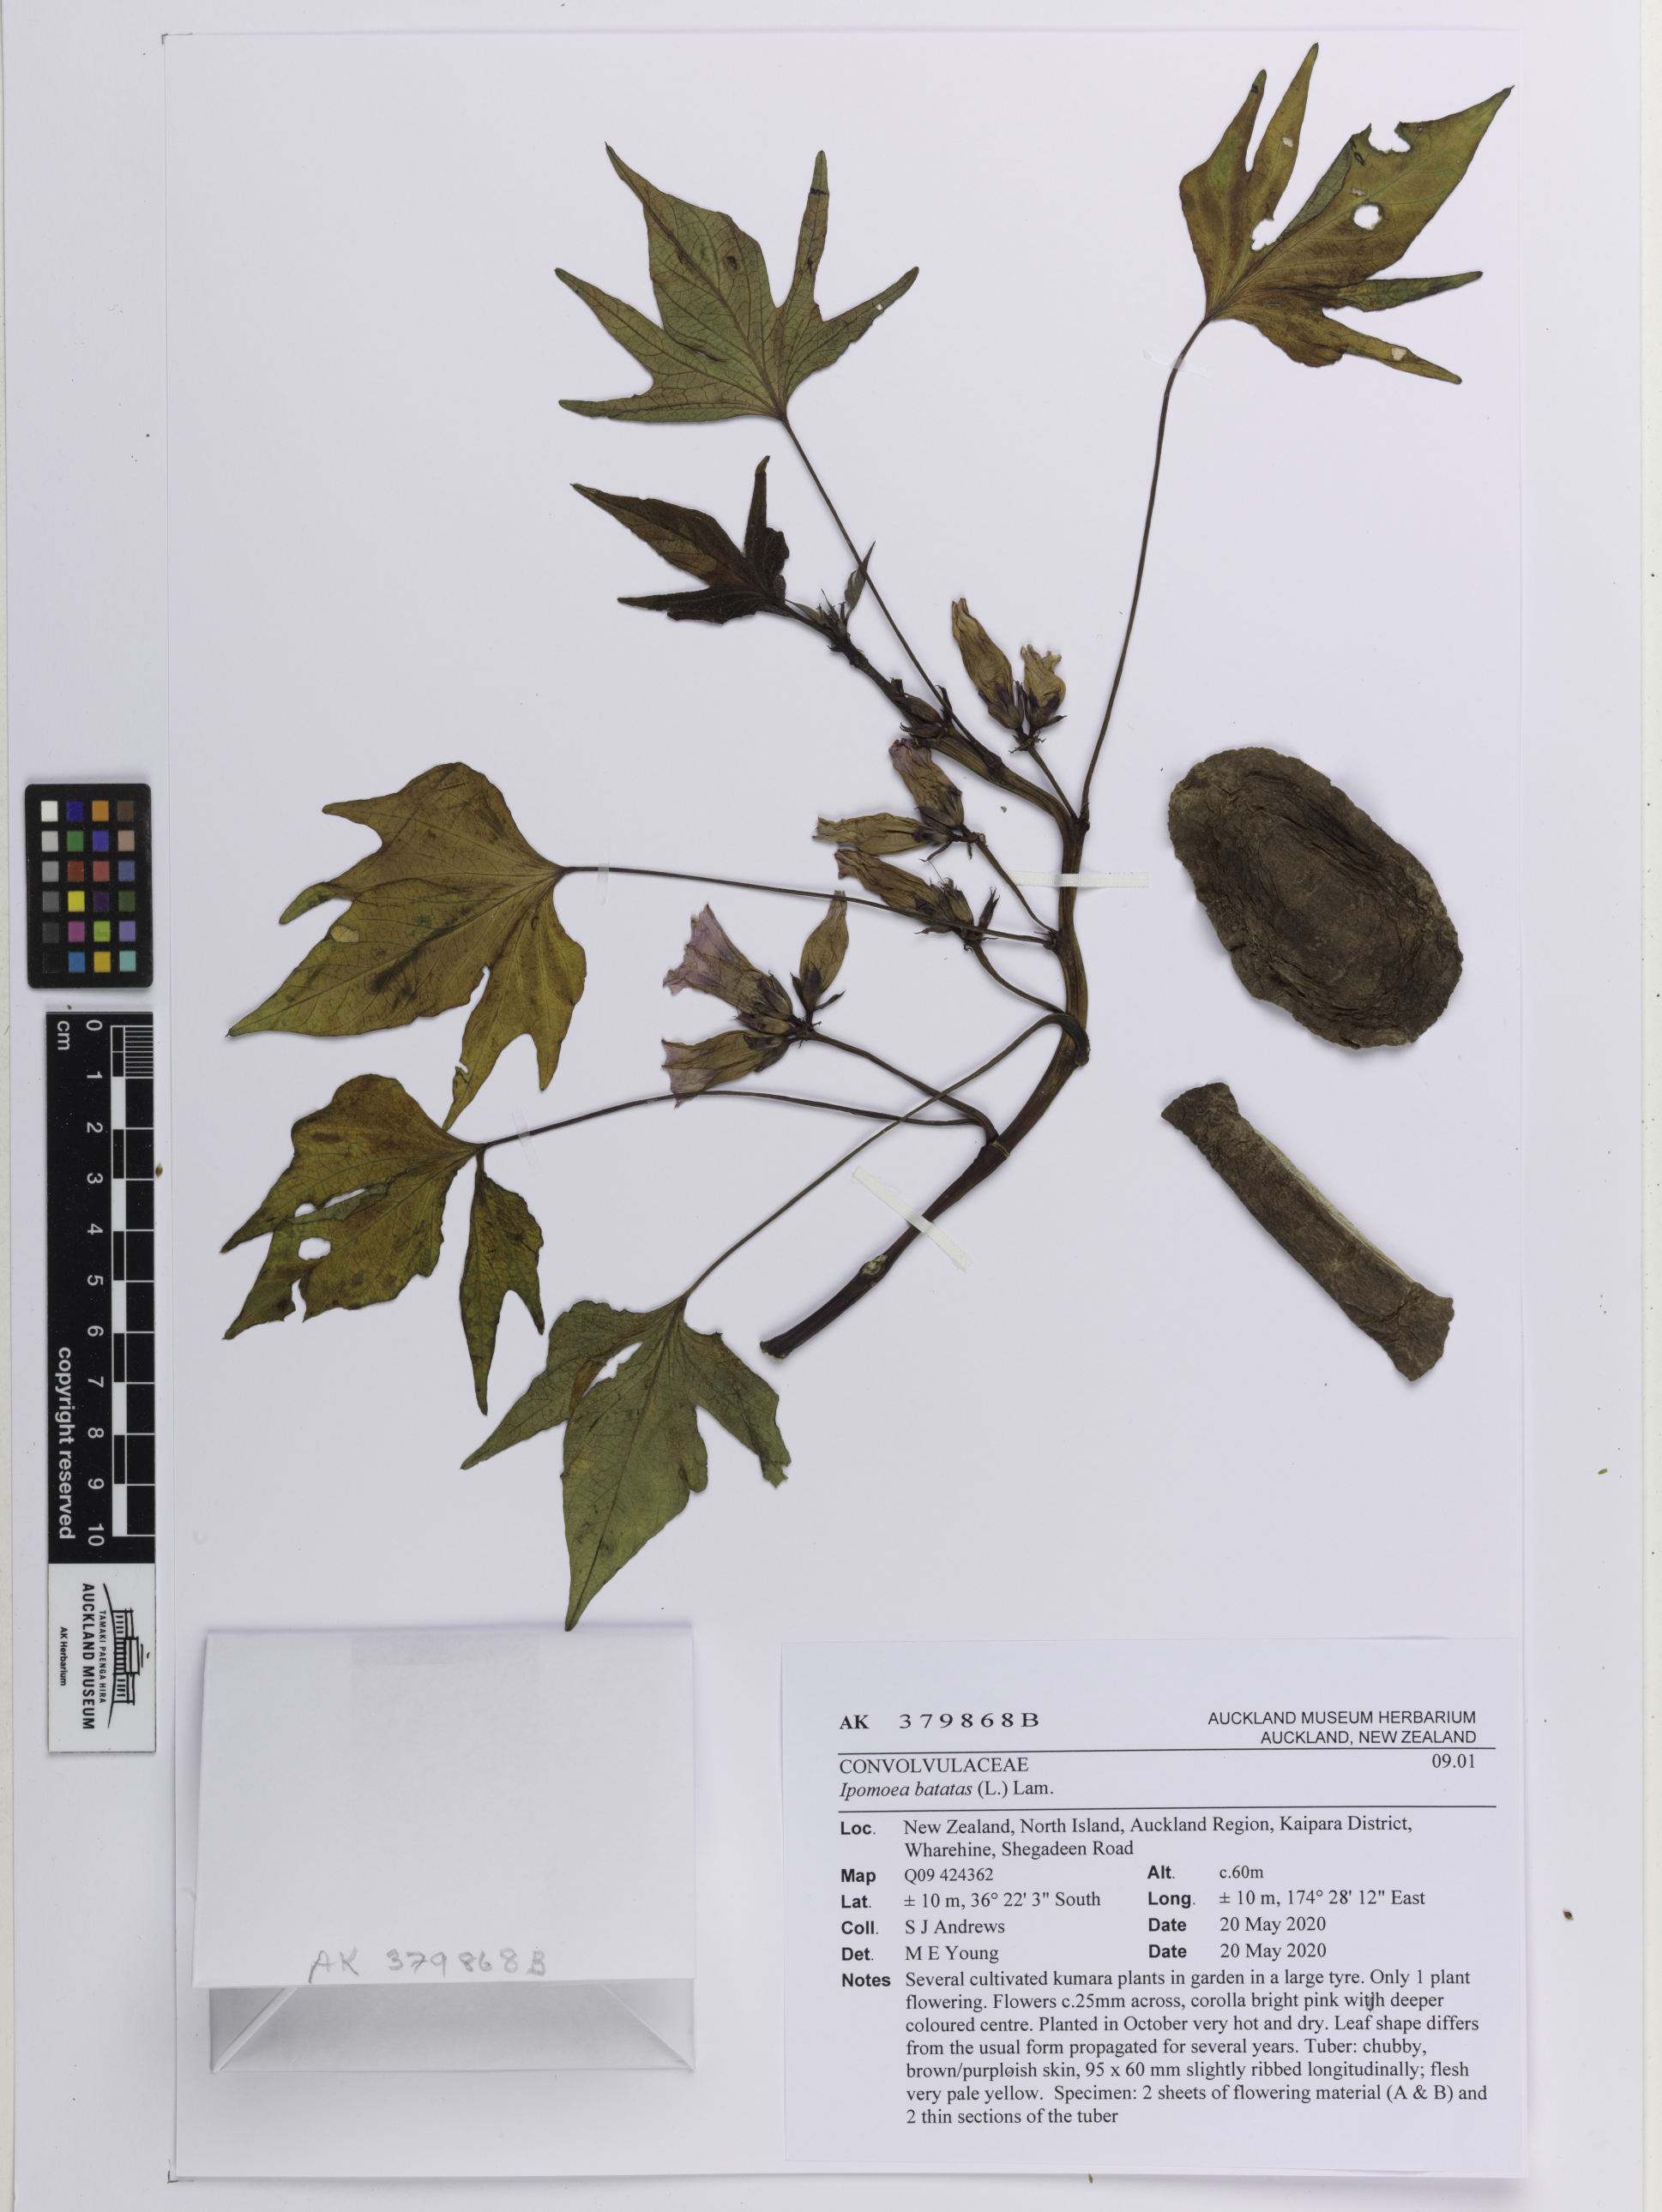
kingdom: Plantae
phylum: Tracheophyta
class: Magnoliopsida
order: Solanales
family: Convolvulaceae
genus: Ipomoea
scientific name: Ipomoea batatas
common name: Sweet-potato
